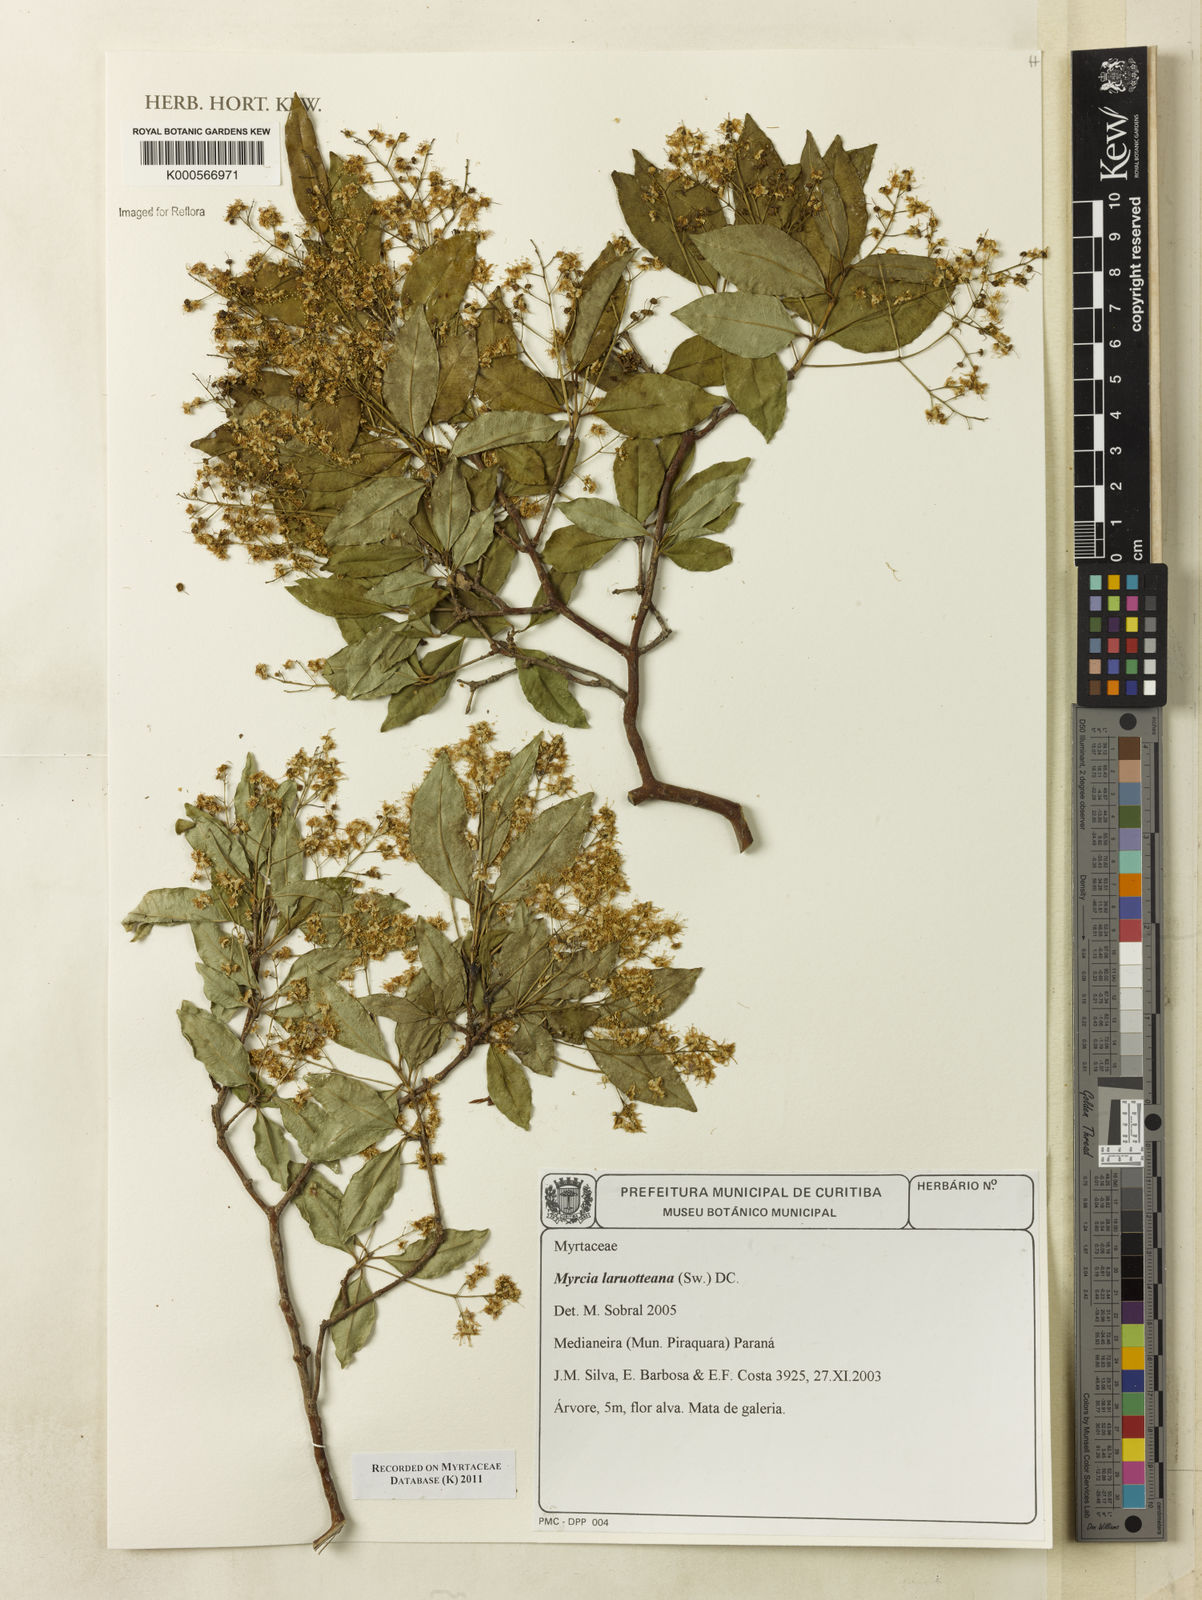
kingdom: Plantae
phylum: Tracheophyta
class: Magnoliopsida
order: Myrtales
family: Myrtaceae
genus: Myrcia
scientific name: Myrcia laruotteana
